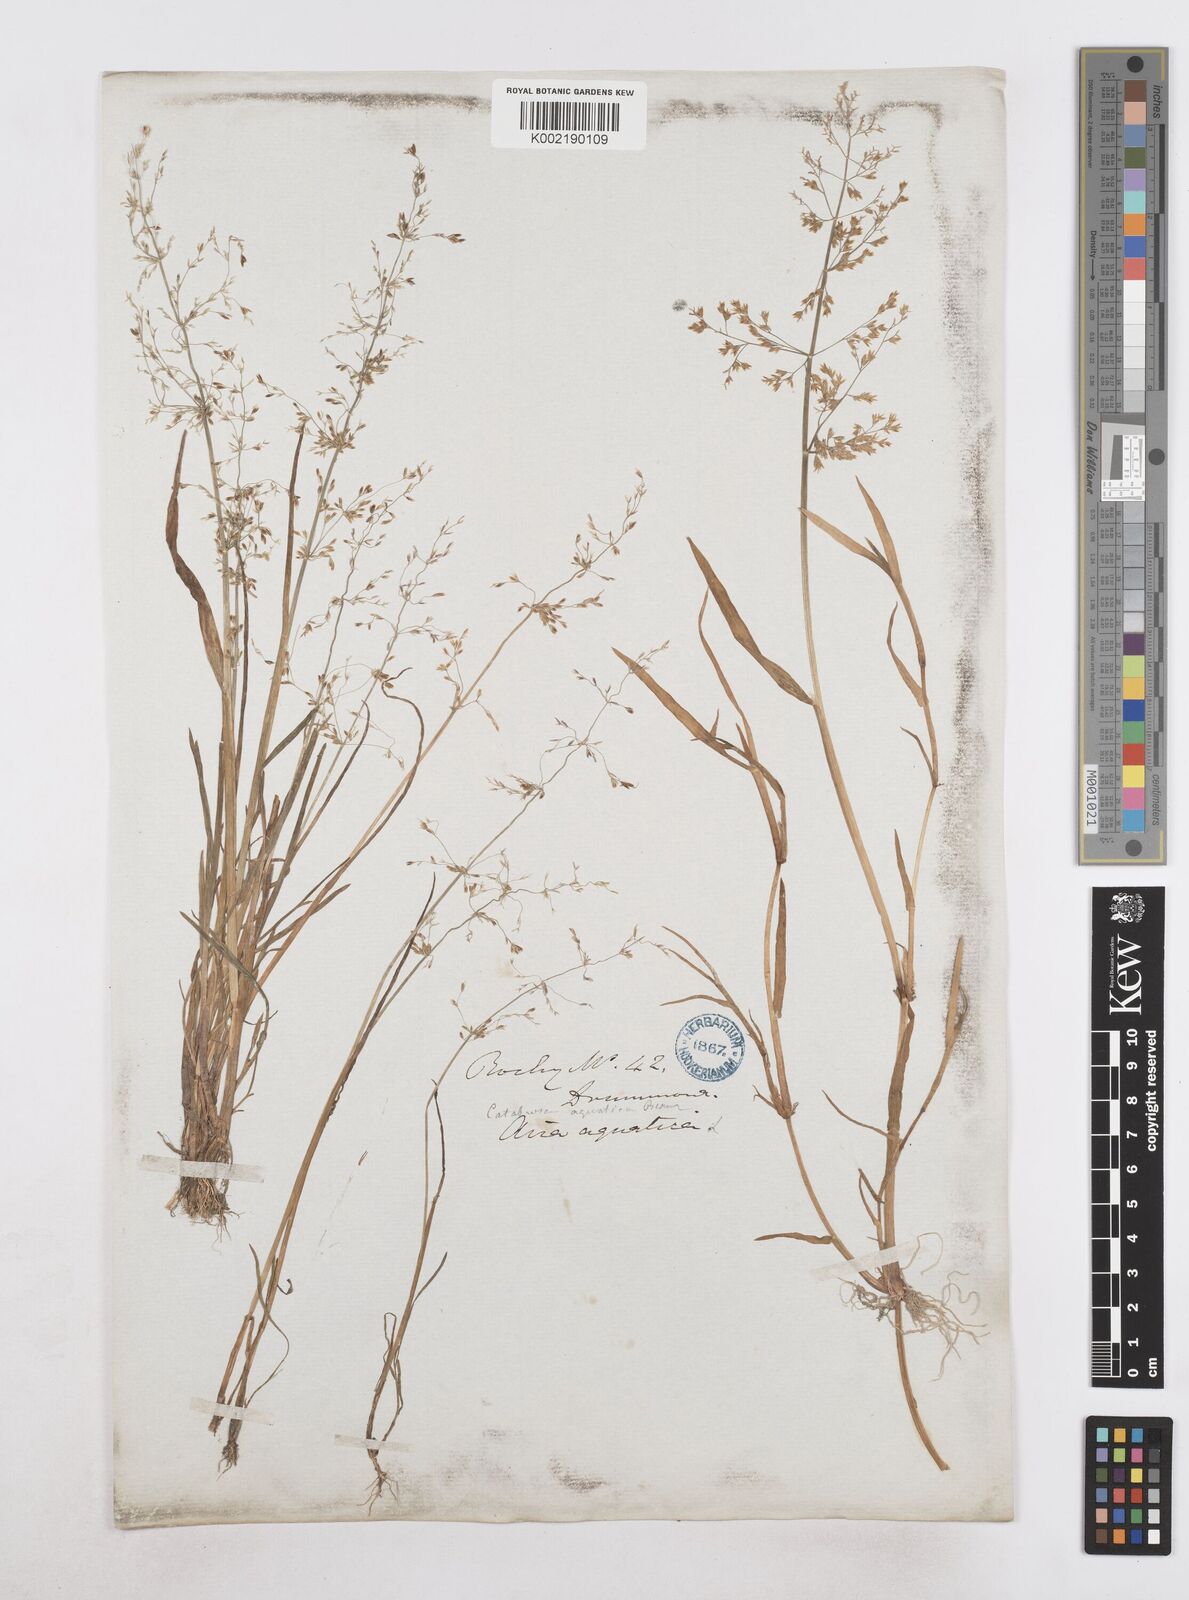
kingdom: Plantae
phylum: Tracheophyta
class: Liliopsida
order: Poales
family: Poaceae
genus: Catabrosa
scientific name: Catabrosa aquatica
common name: Whorl-grass
